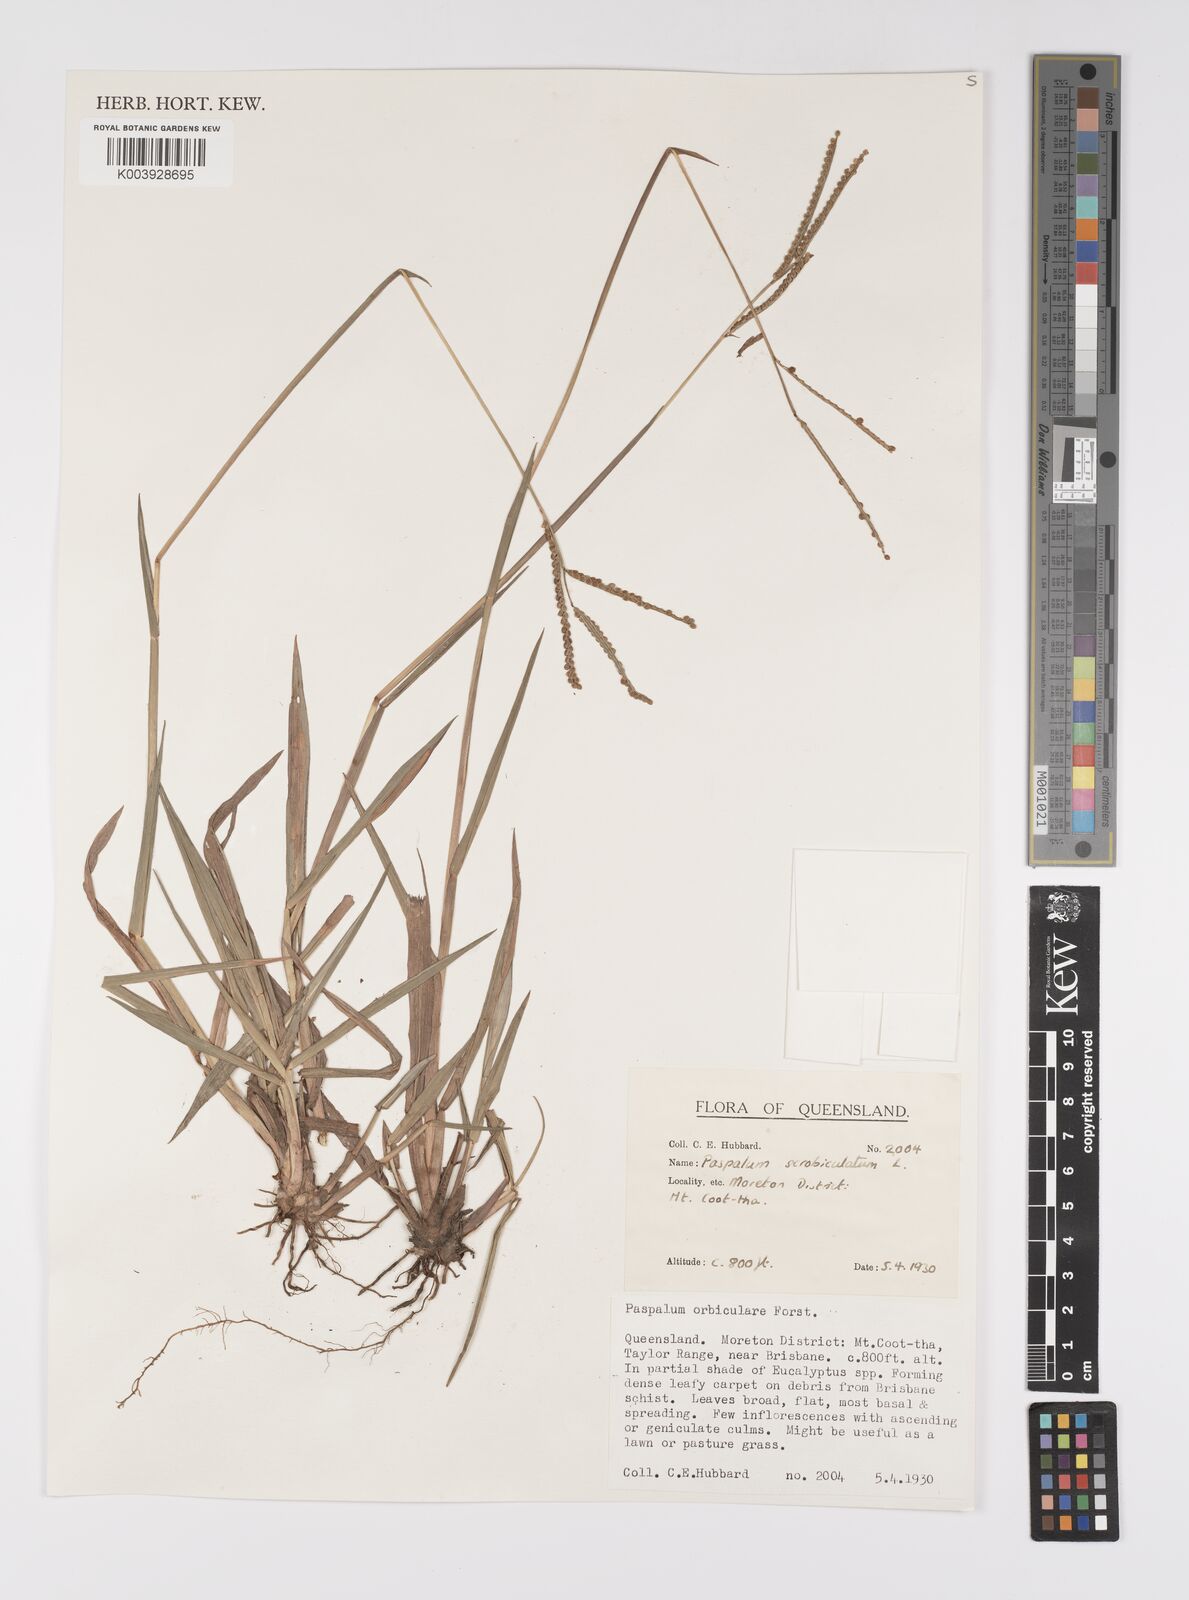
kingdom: Plantae
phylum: Tracheophyta
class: Liliopsida
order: Poales
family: Poaceae
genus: Paspalum
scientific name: Paspalum scrobiculatum
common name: Kodo millet
